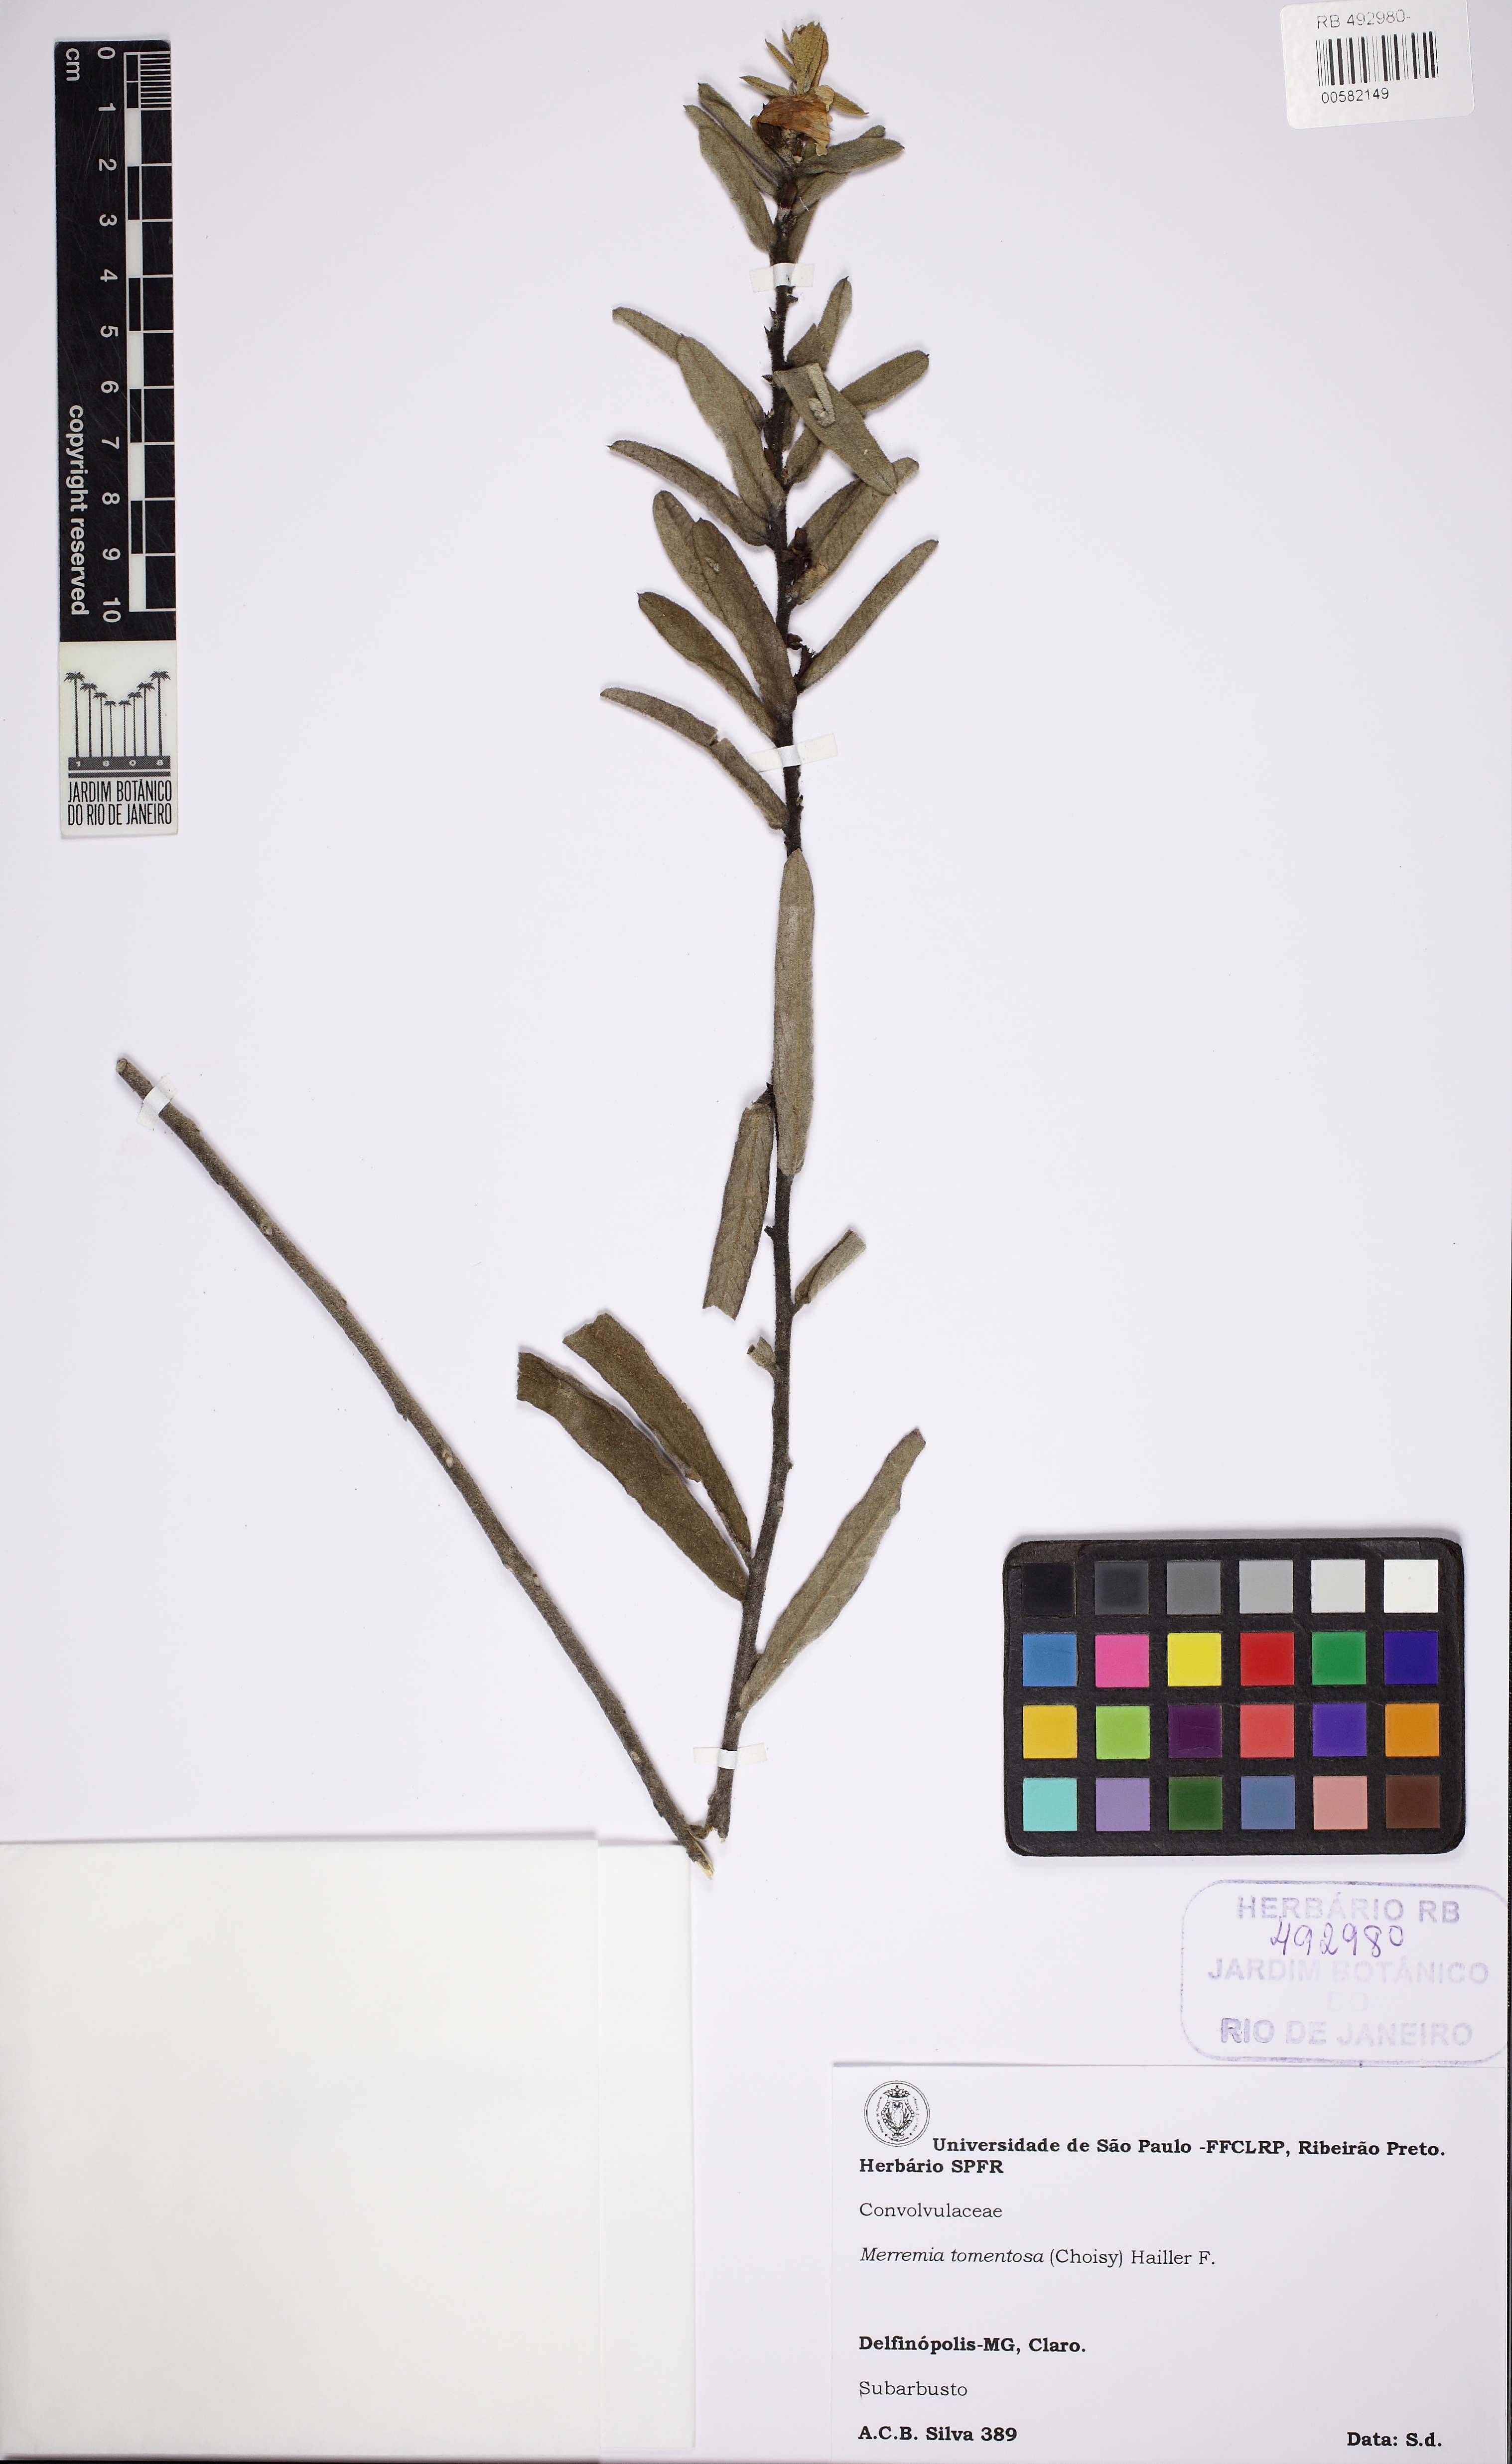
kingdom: Plantae
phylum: Tracheophyta
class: Magnoliopsida
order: Solanales
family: Convolvulaceae
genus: Distimake
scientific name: Distimake tomentosus
